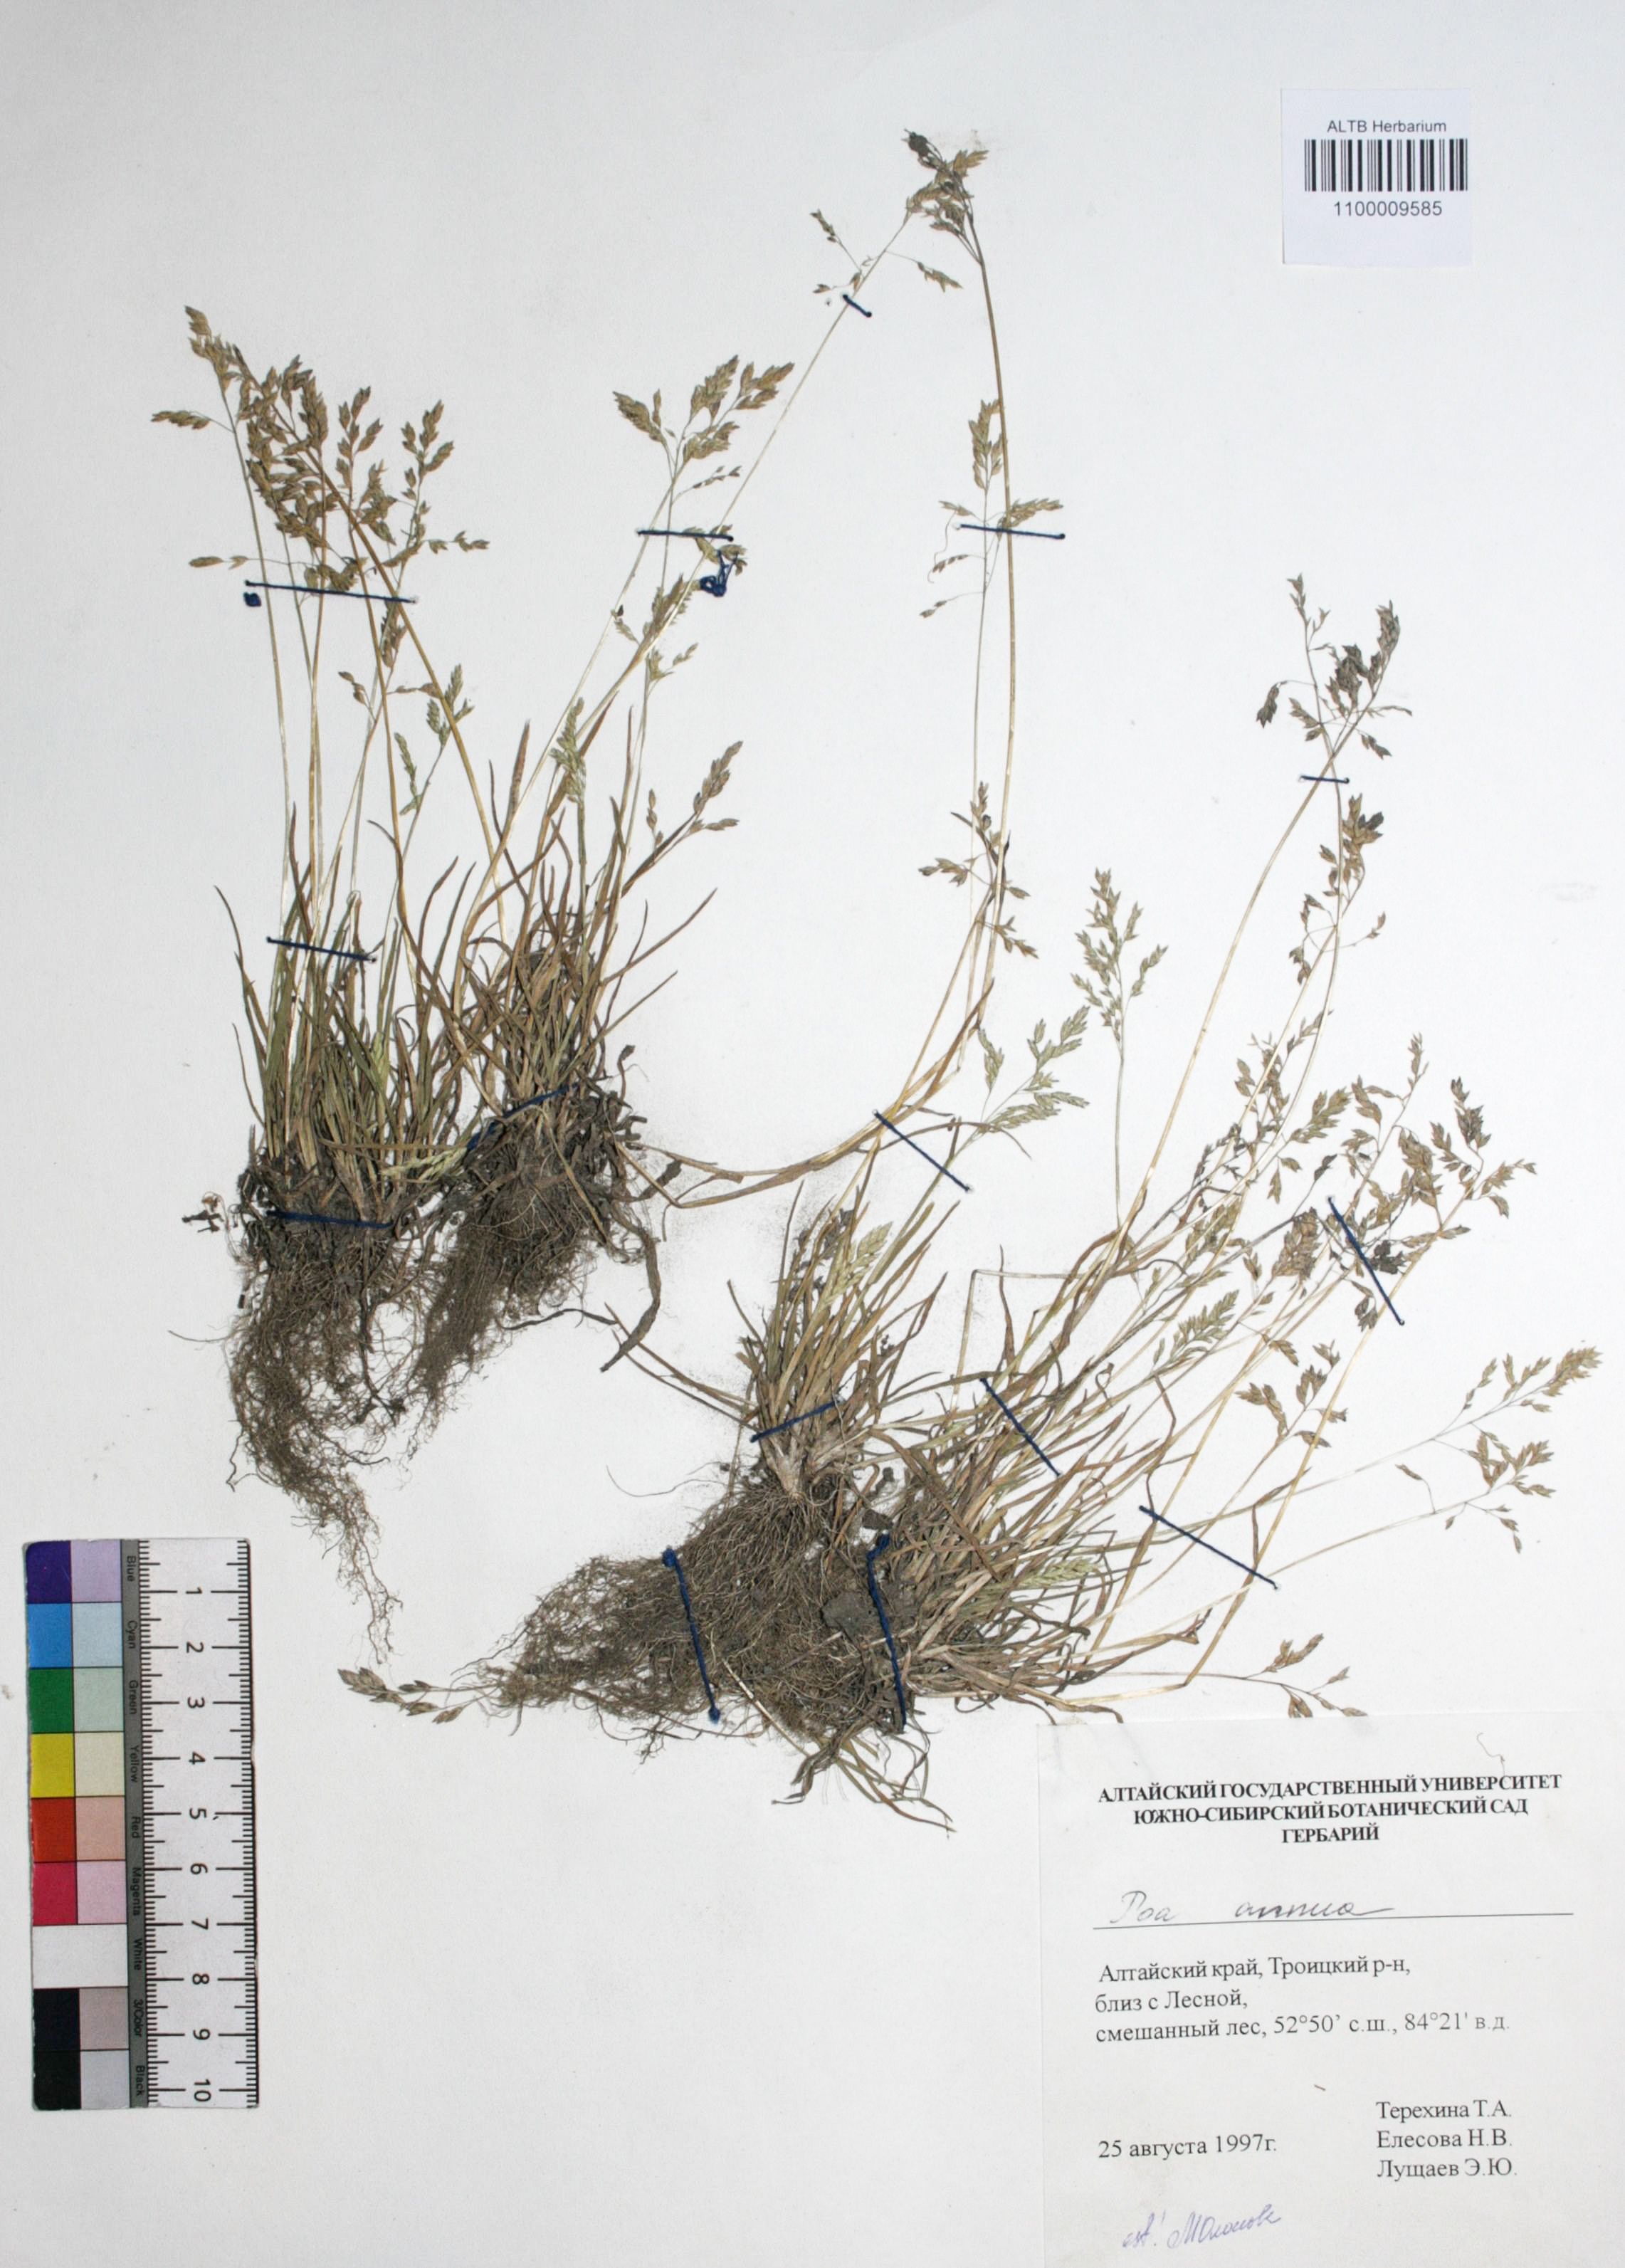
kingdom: Plantae
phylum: Tracheophyta
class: Liliopsida
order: Poales
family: Poaceae
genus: Poa
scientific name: Poa annua
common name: Annual bluegrass
